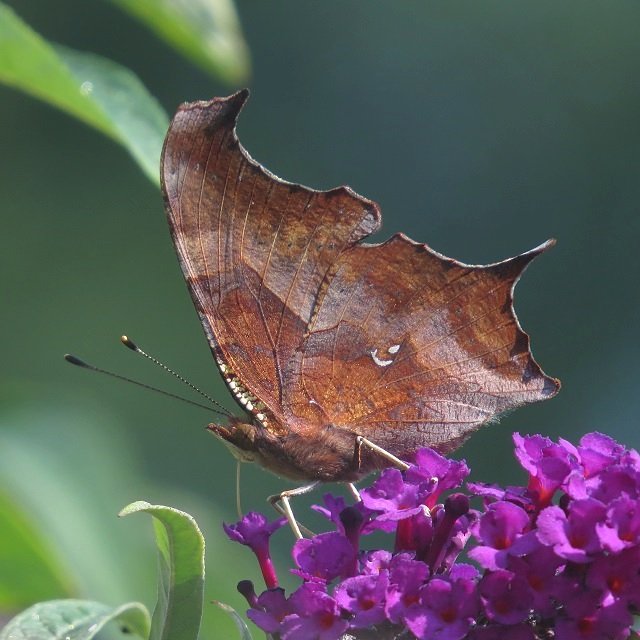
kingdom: Animalia
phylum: Arthropoda
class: Insecta
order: Lepidoptera
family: Nymphalidae
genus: Polygonia
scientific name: Polygonia interrogationis
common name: Question Mark
